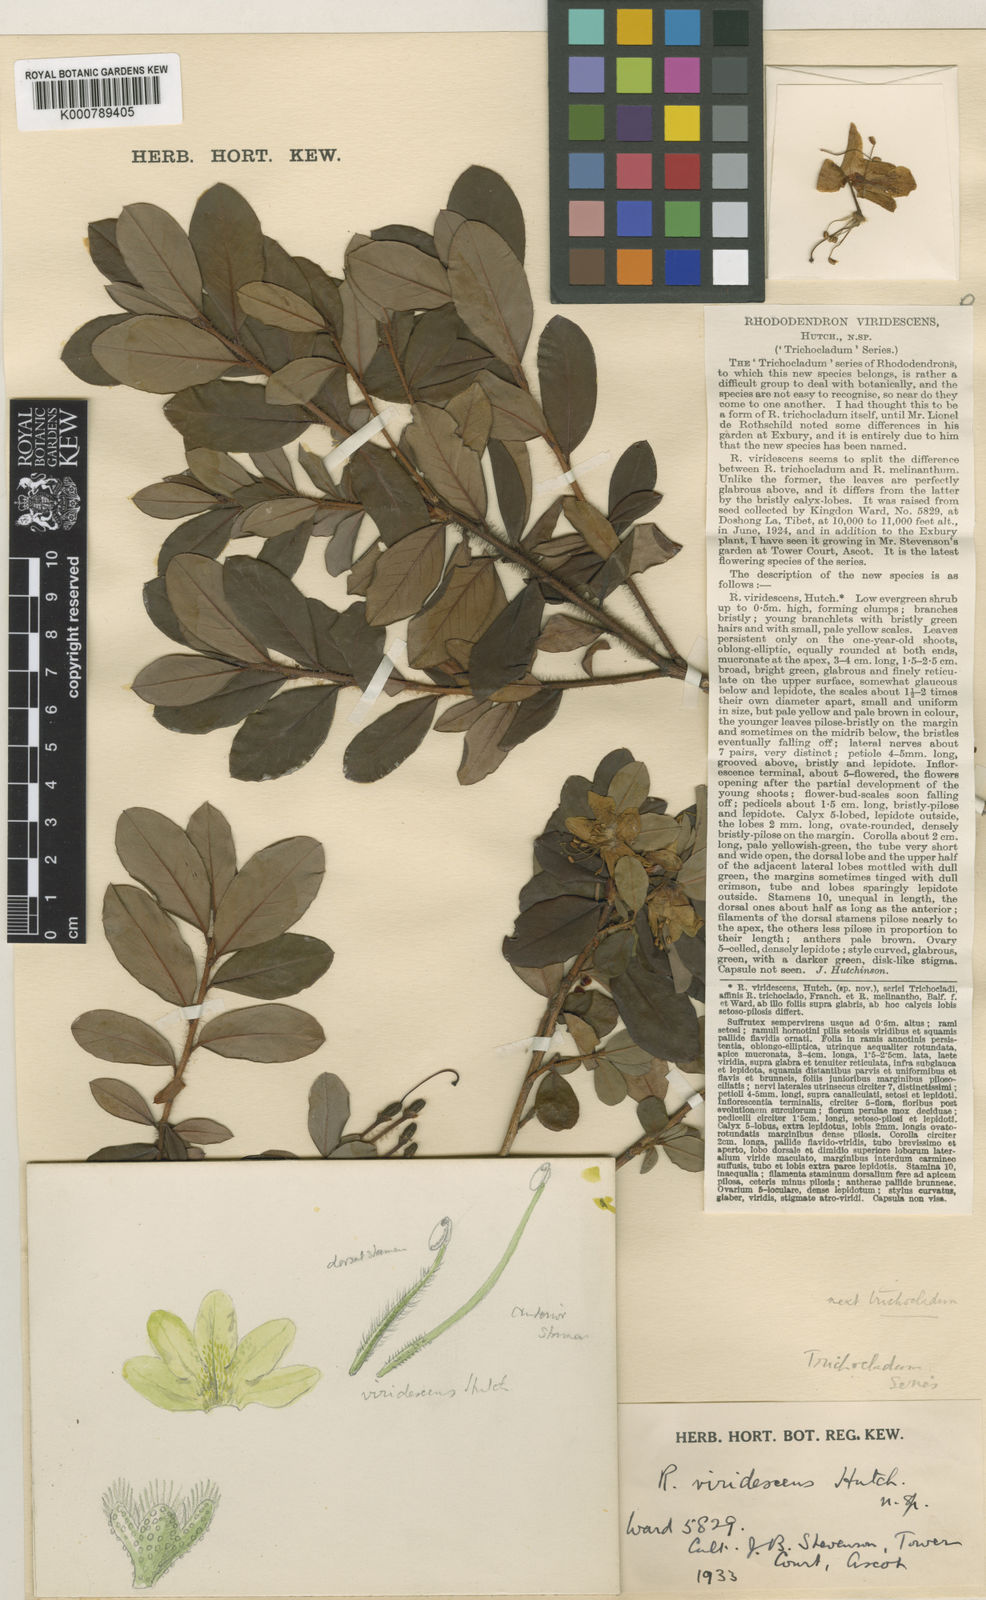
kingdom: Plantae
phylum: Tracheophyta
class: Magnoliopsida
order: Ericales
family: Ericaceae
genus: Rhododendron
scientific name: Rhododendron mekongense
